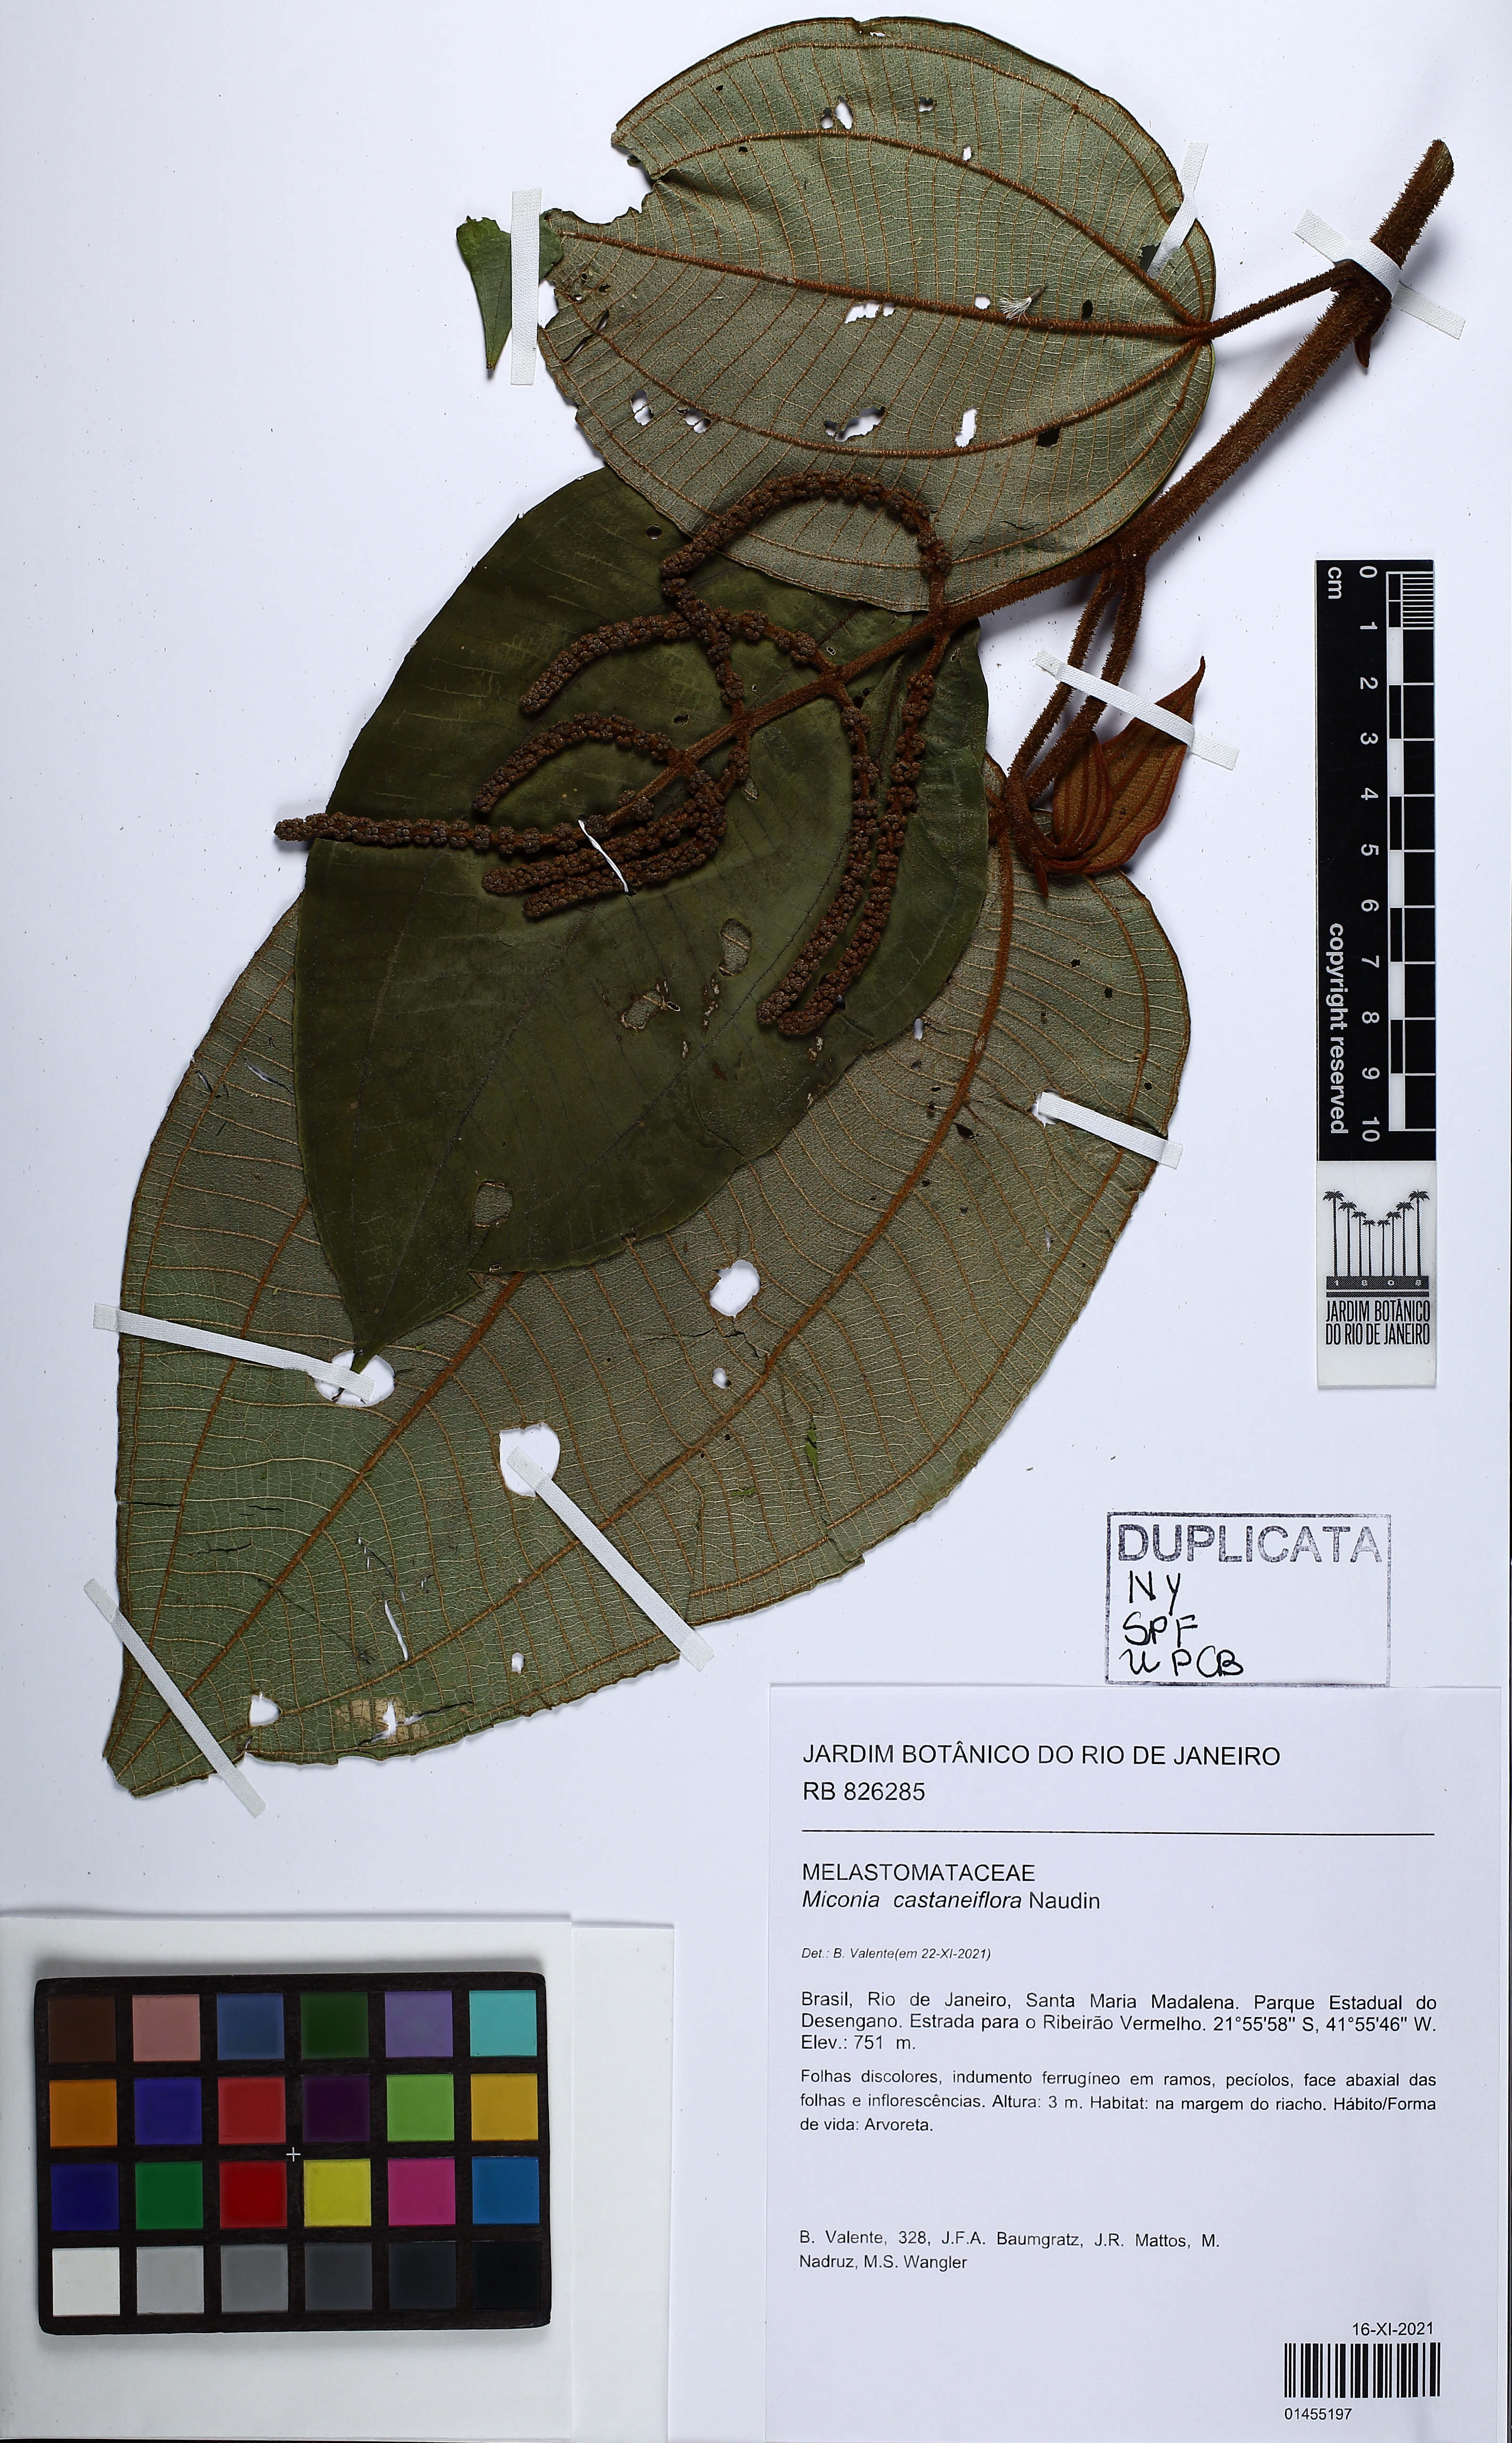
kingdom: Plantae
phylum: Tracheophyta
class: Magnoliopsida
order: Myrtales
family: Melastomataceae
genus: Miconia
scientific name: Miconia castaneifolia
